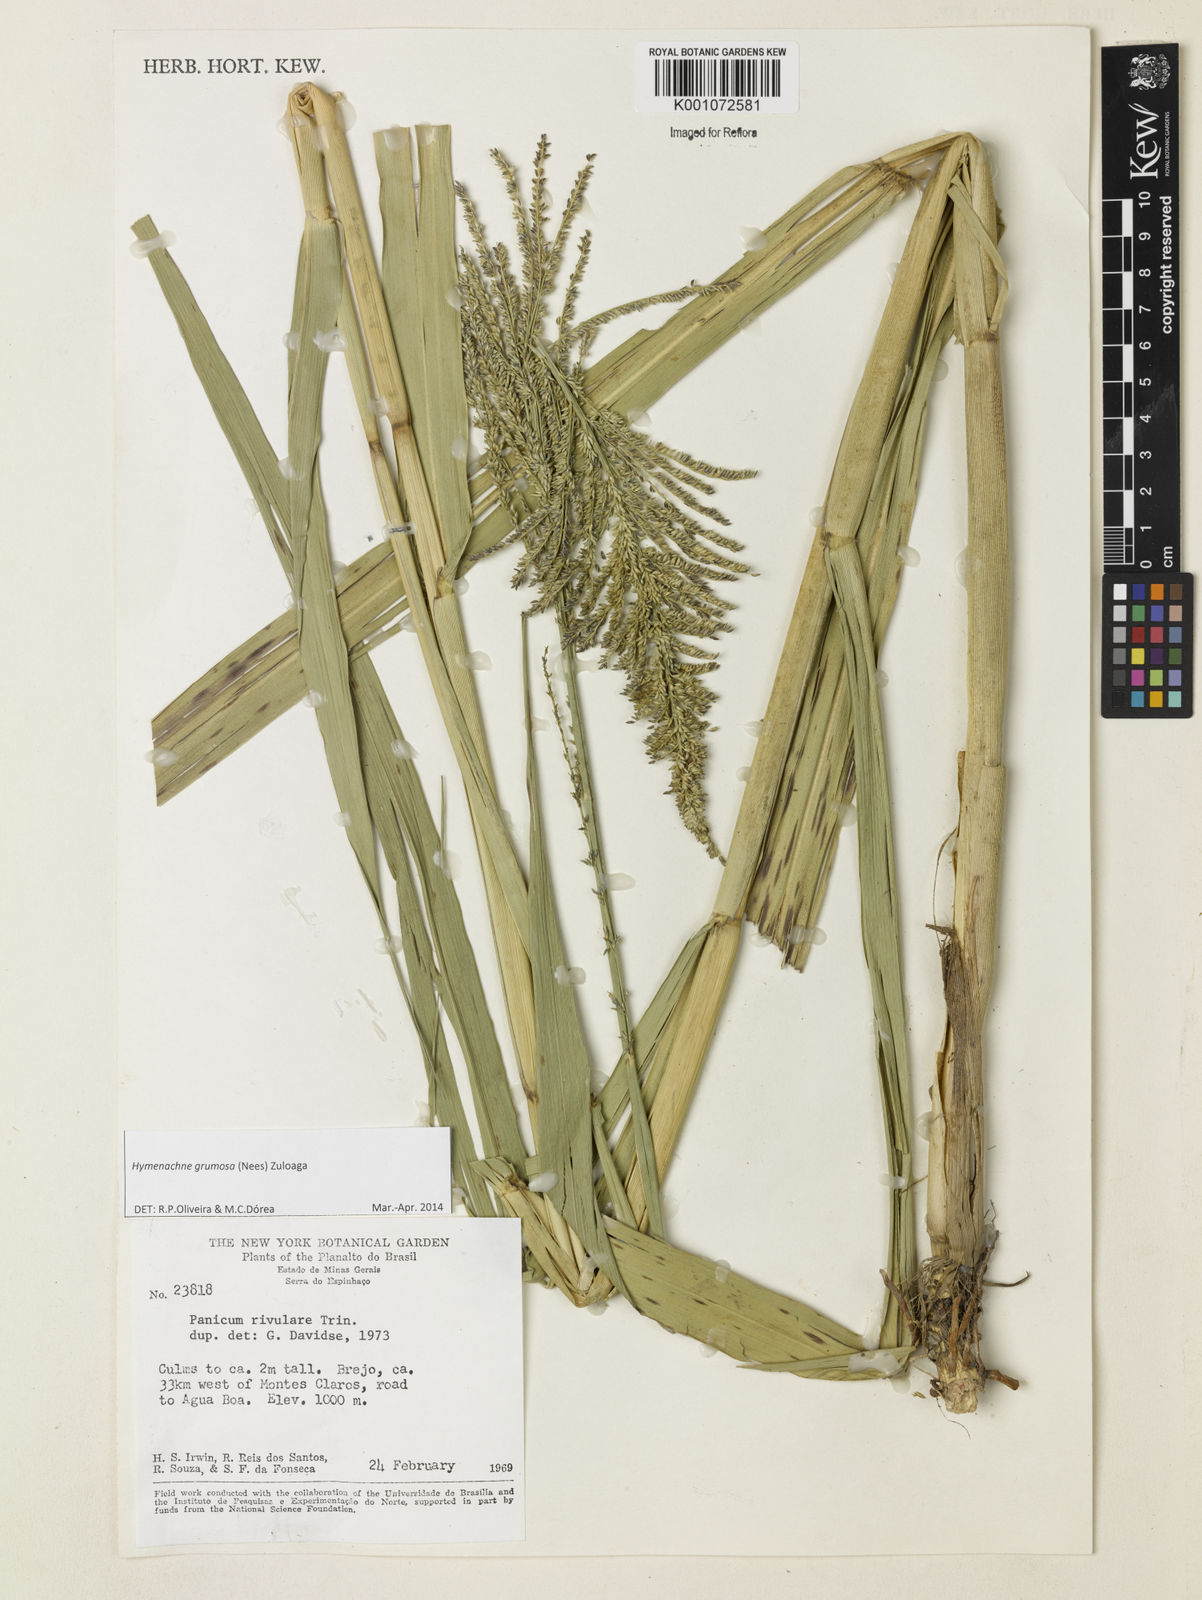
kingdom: Plantae
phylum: Tracheophyta
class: Liliopsida
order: Poales
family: Poaceae
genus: Hymenachne
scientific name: Hymenachne grumosa
